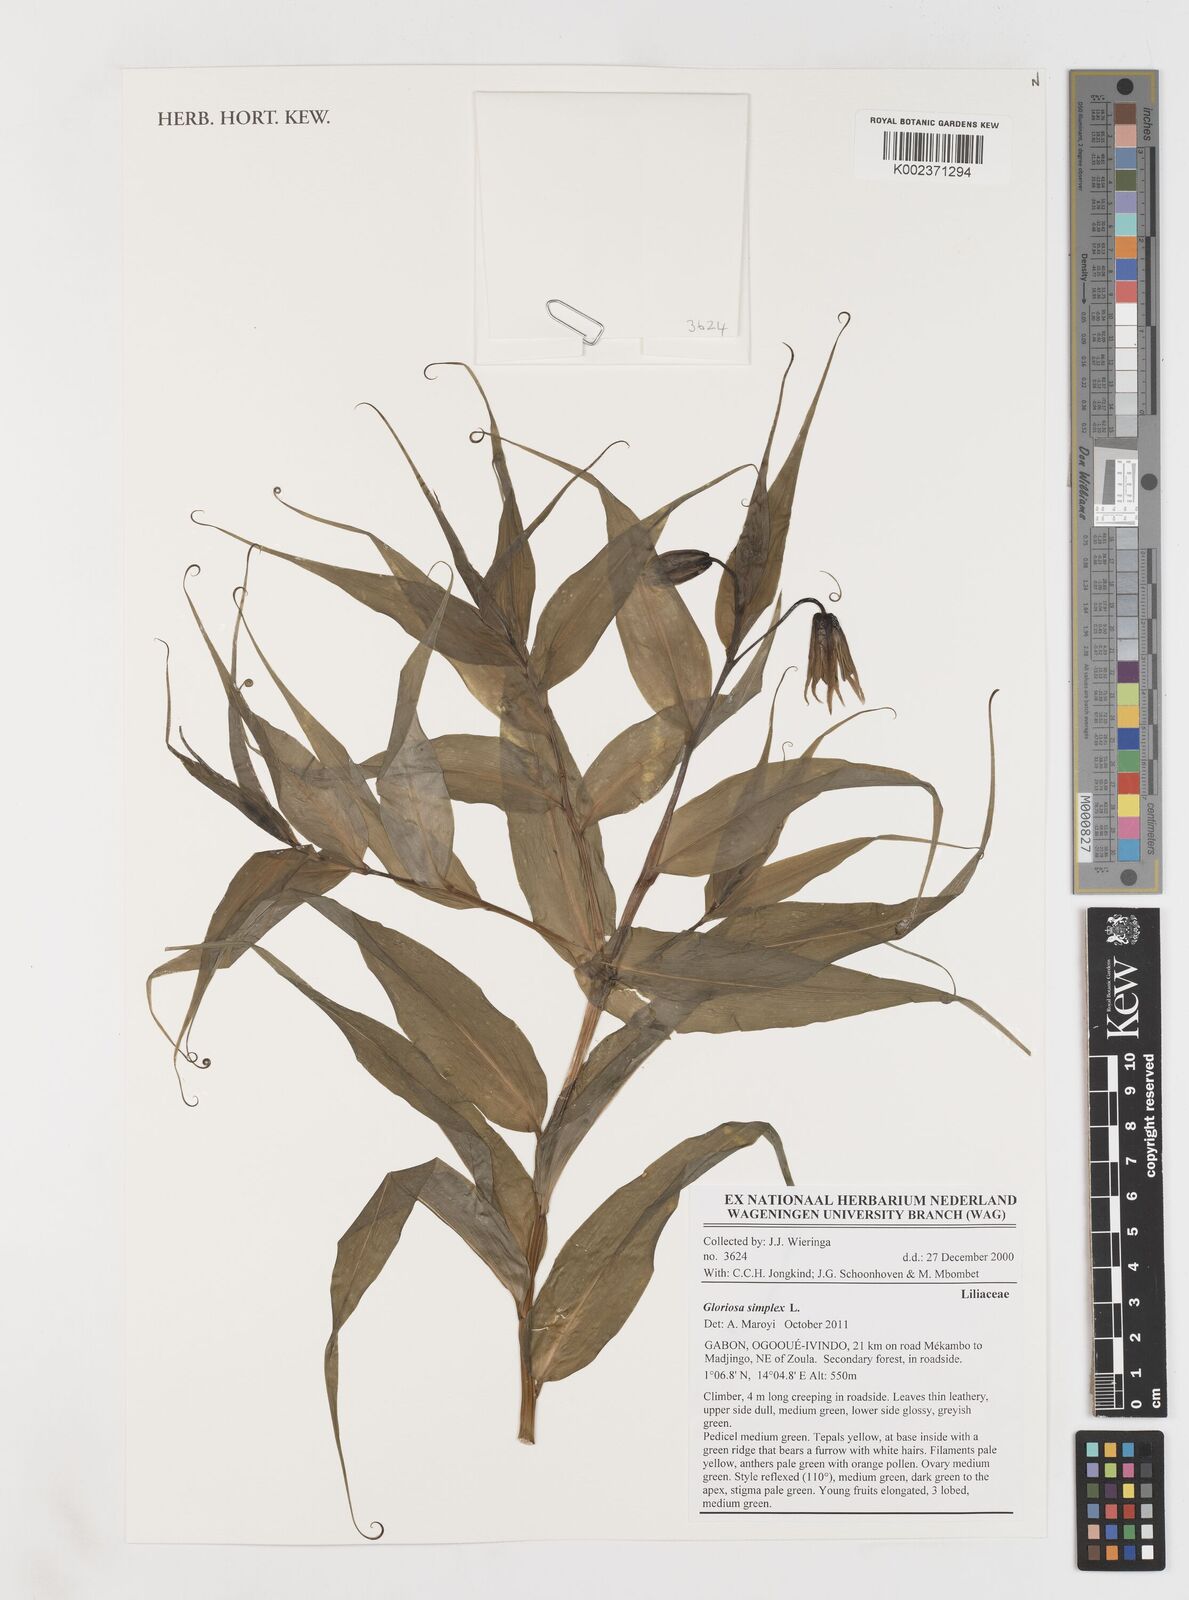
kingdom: Plantae
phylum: Tracheophyta
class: Liliopsida
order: Liliales
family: Colchicaceae
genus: Gloriosa
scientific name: Gloriosa simplex
